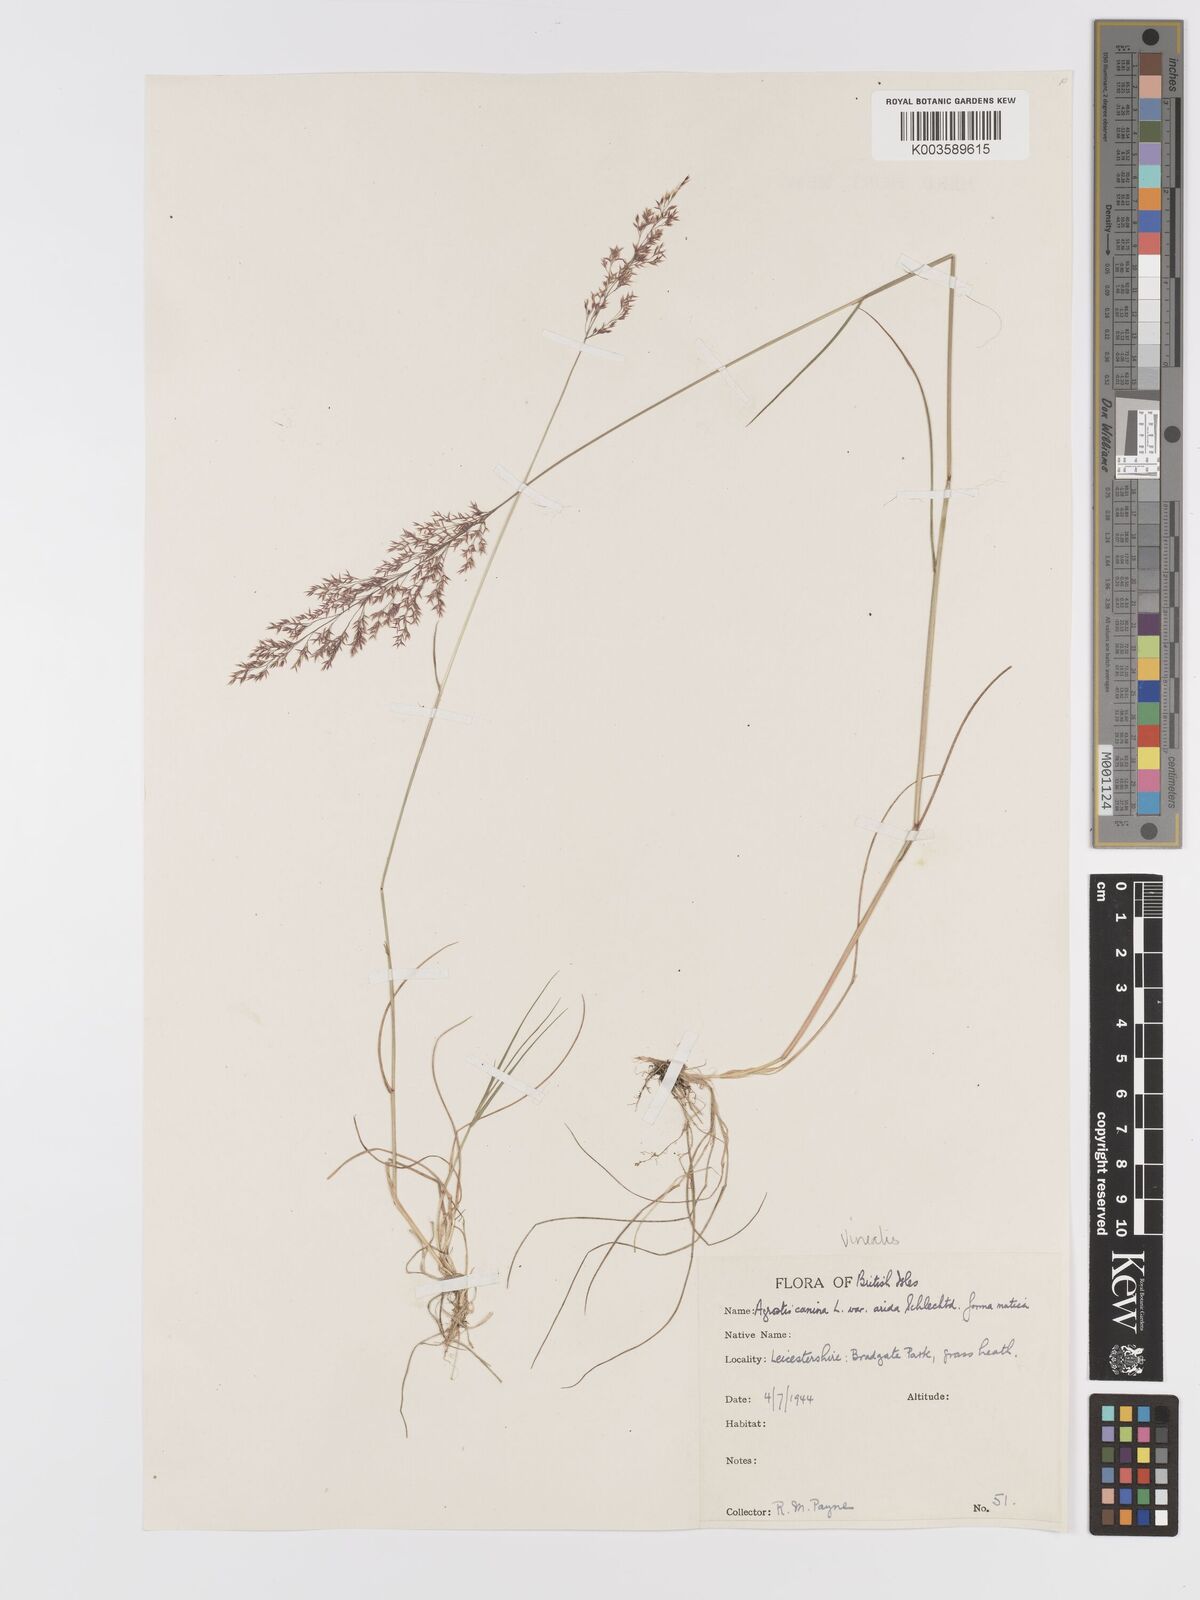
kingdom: Plantae
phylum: Tracheophyta
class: Liliopsida
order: Poales
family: Poaceae
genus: Agrostis
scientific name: Agrostis
